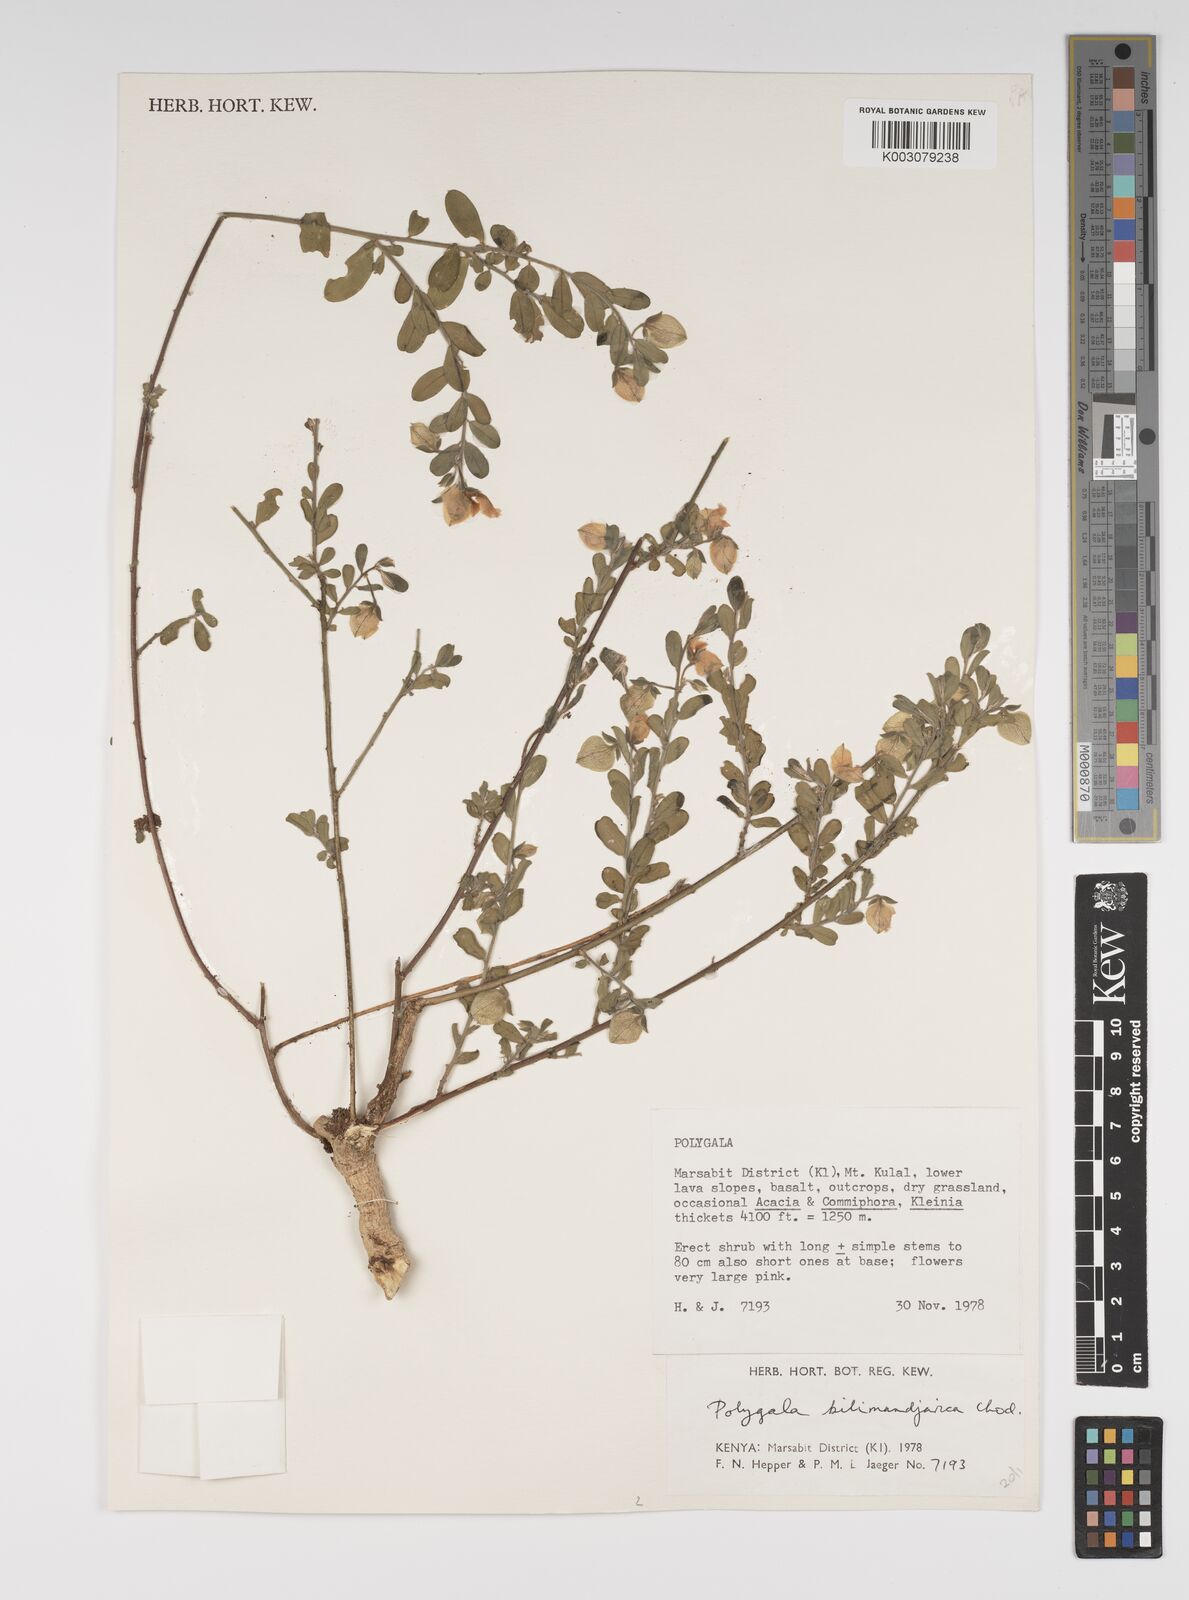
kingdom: Plantae
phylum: Tracheophyta
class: Magnoliopsida
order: Fabales
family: Polygalaceae
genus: Polygala
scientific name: Polygala kilimandjarica
